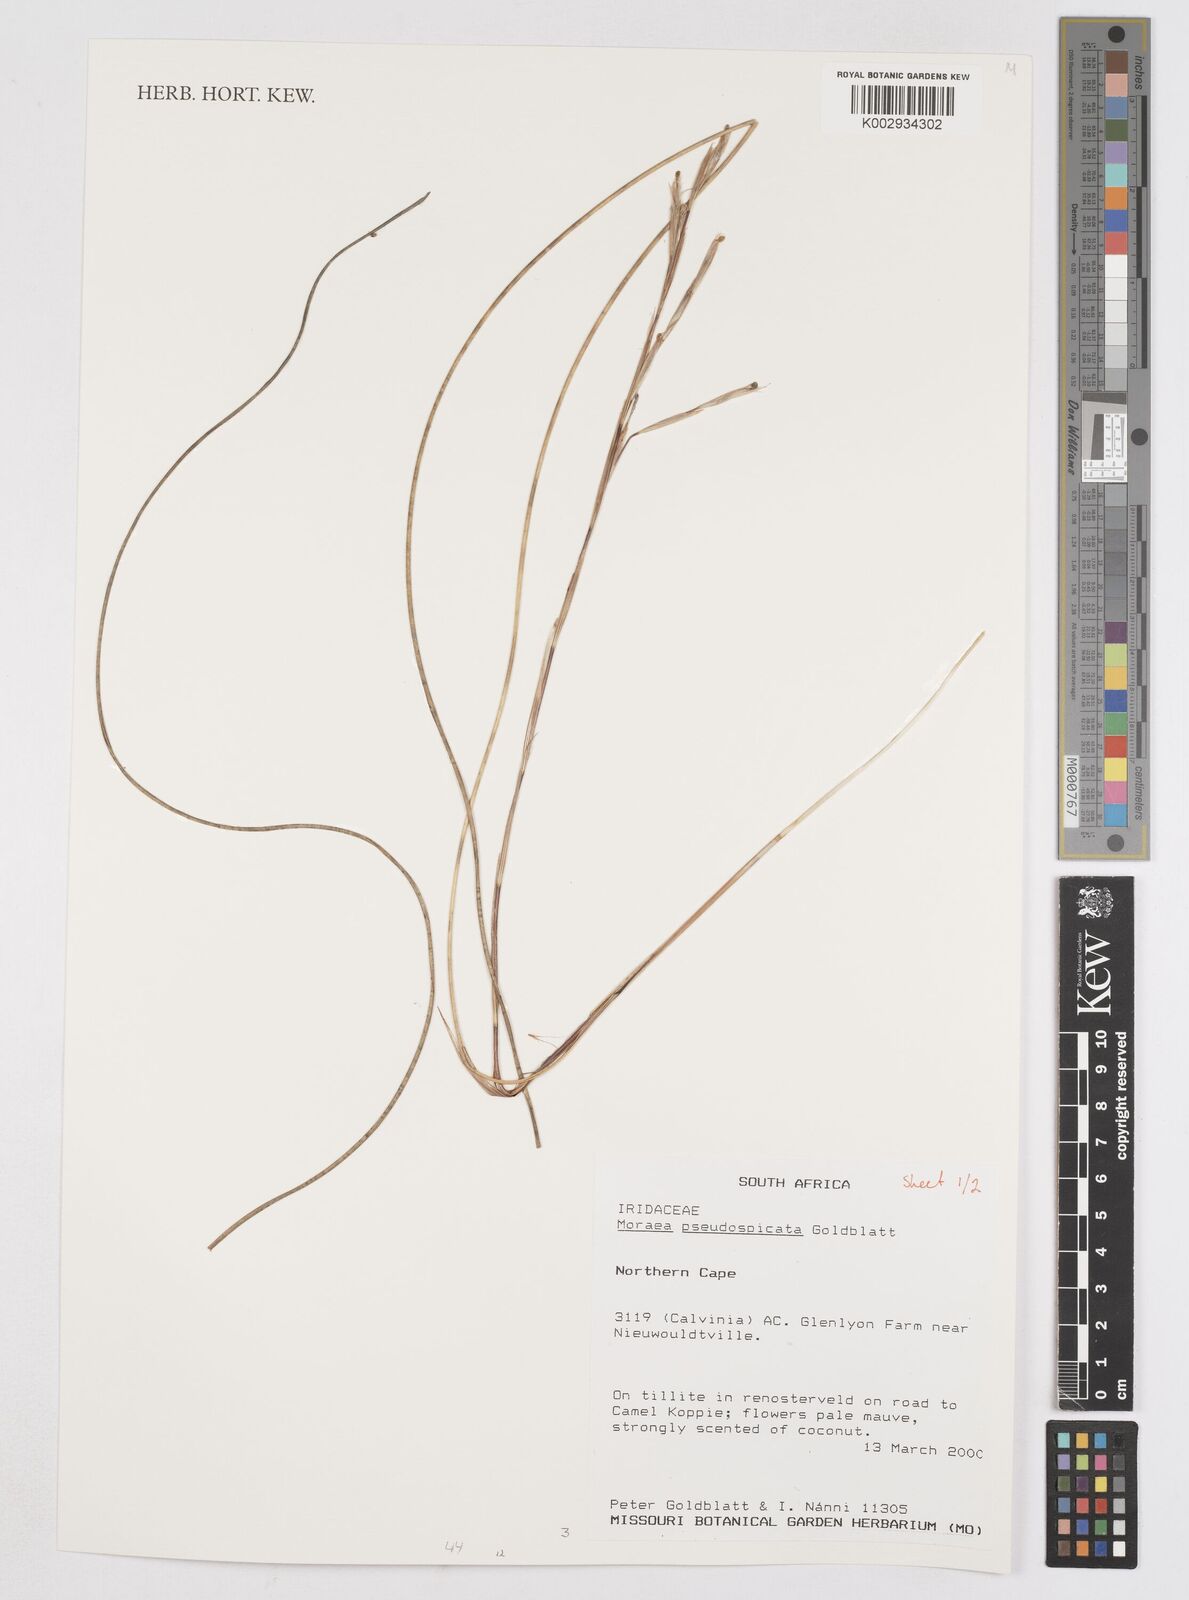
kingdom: Plantae
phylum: Tracheophyta
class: Liliopsida
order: Asparagales
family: Iridaceae
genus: Moraea
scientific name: Moraea pseudospicata
